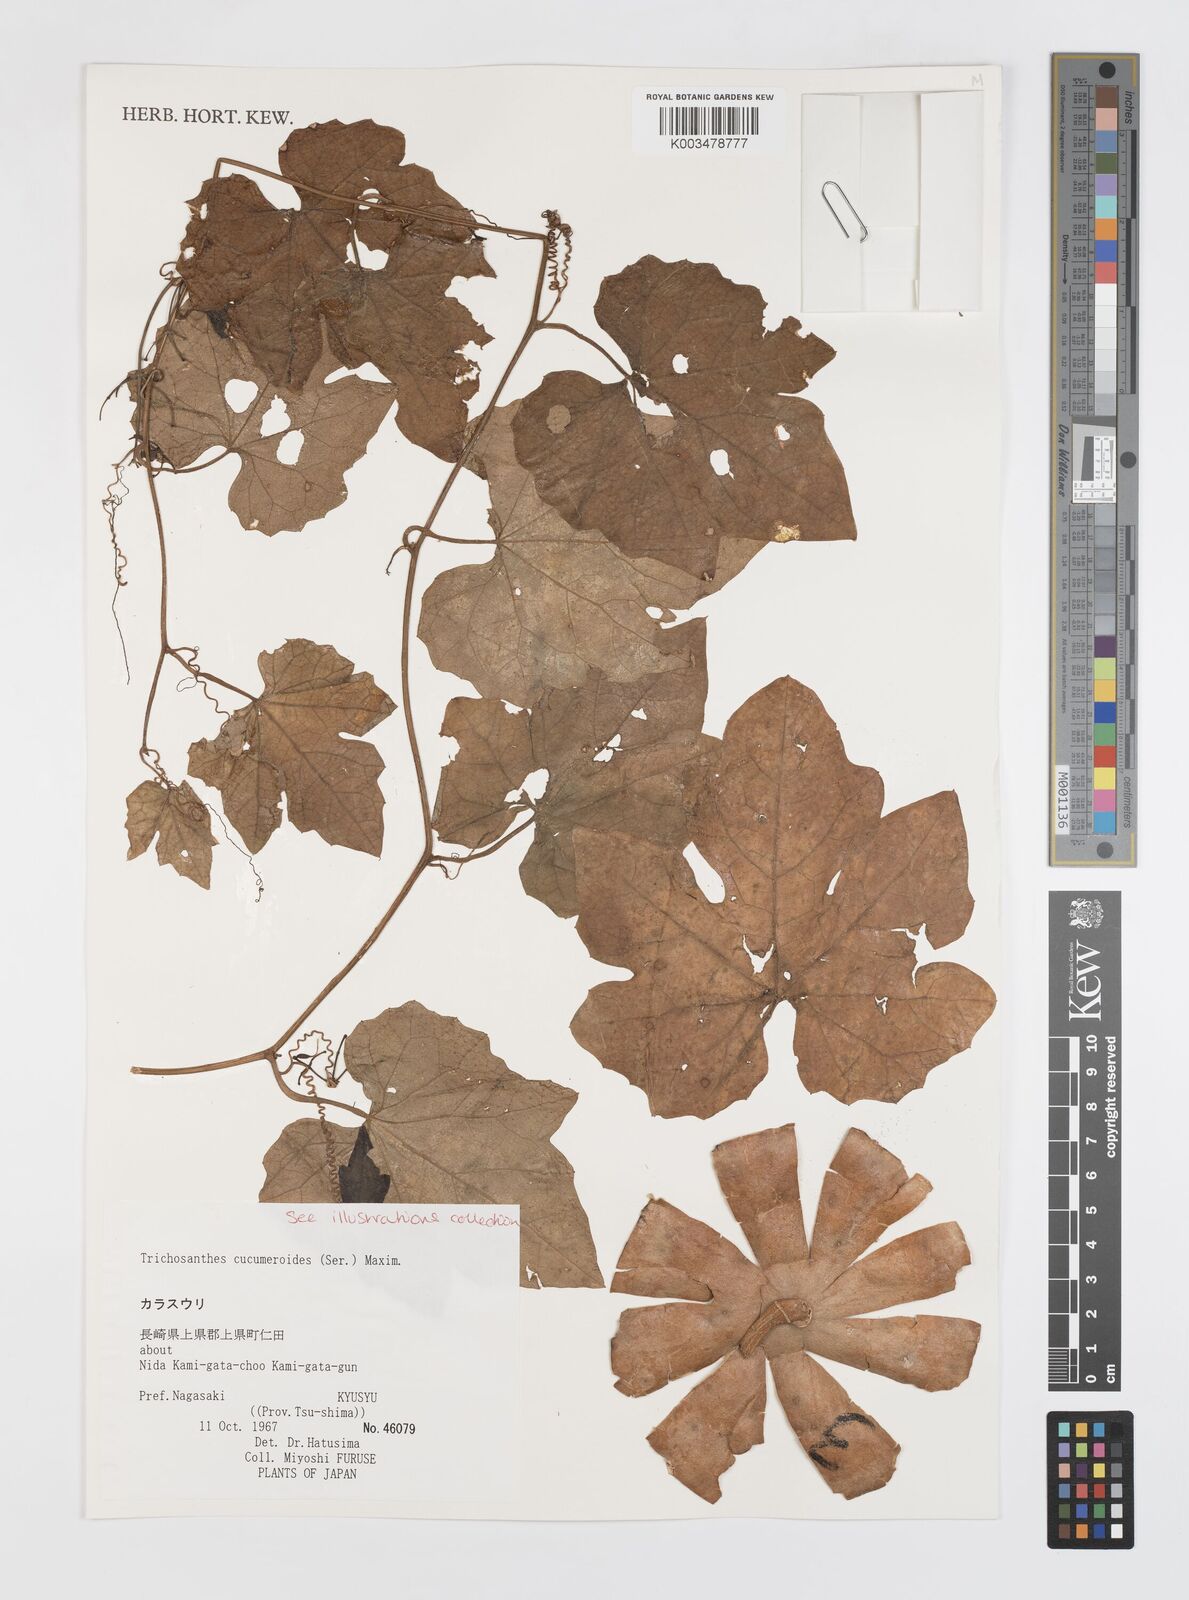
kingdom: Plantae
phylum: Tracheophyta
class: Magnoliopsida
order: Cucurbitales
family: Cucurbitaceae
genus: Trichosanthes
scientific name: Trichosanthes cucumeroides
